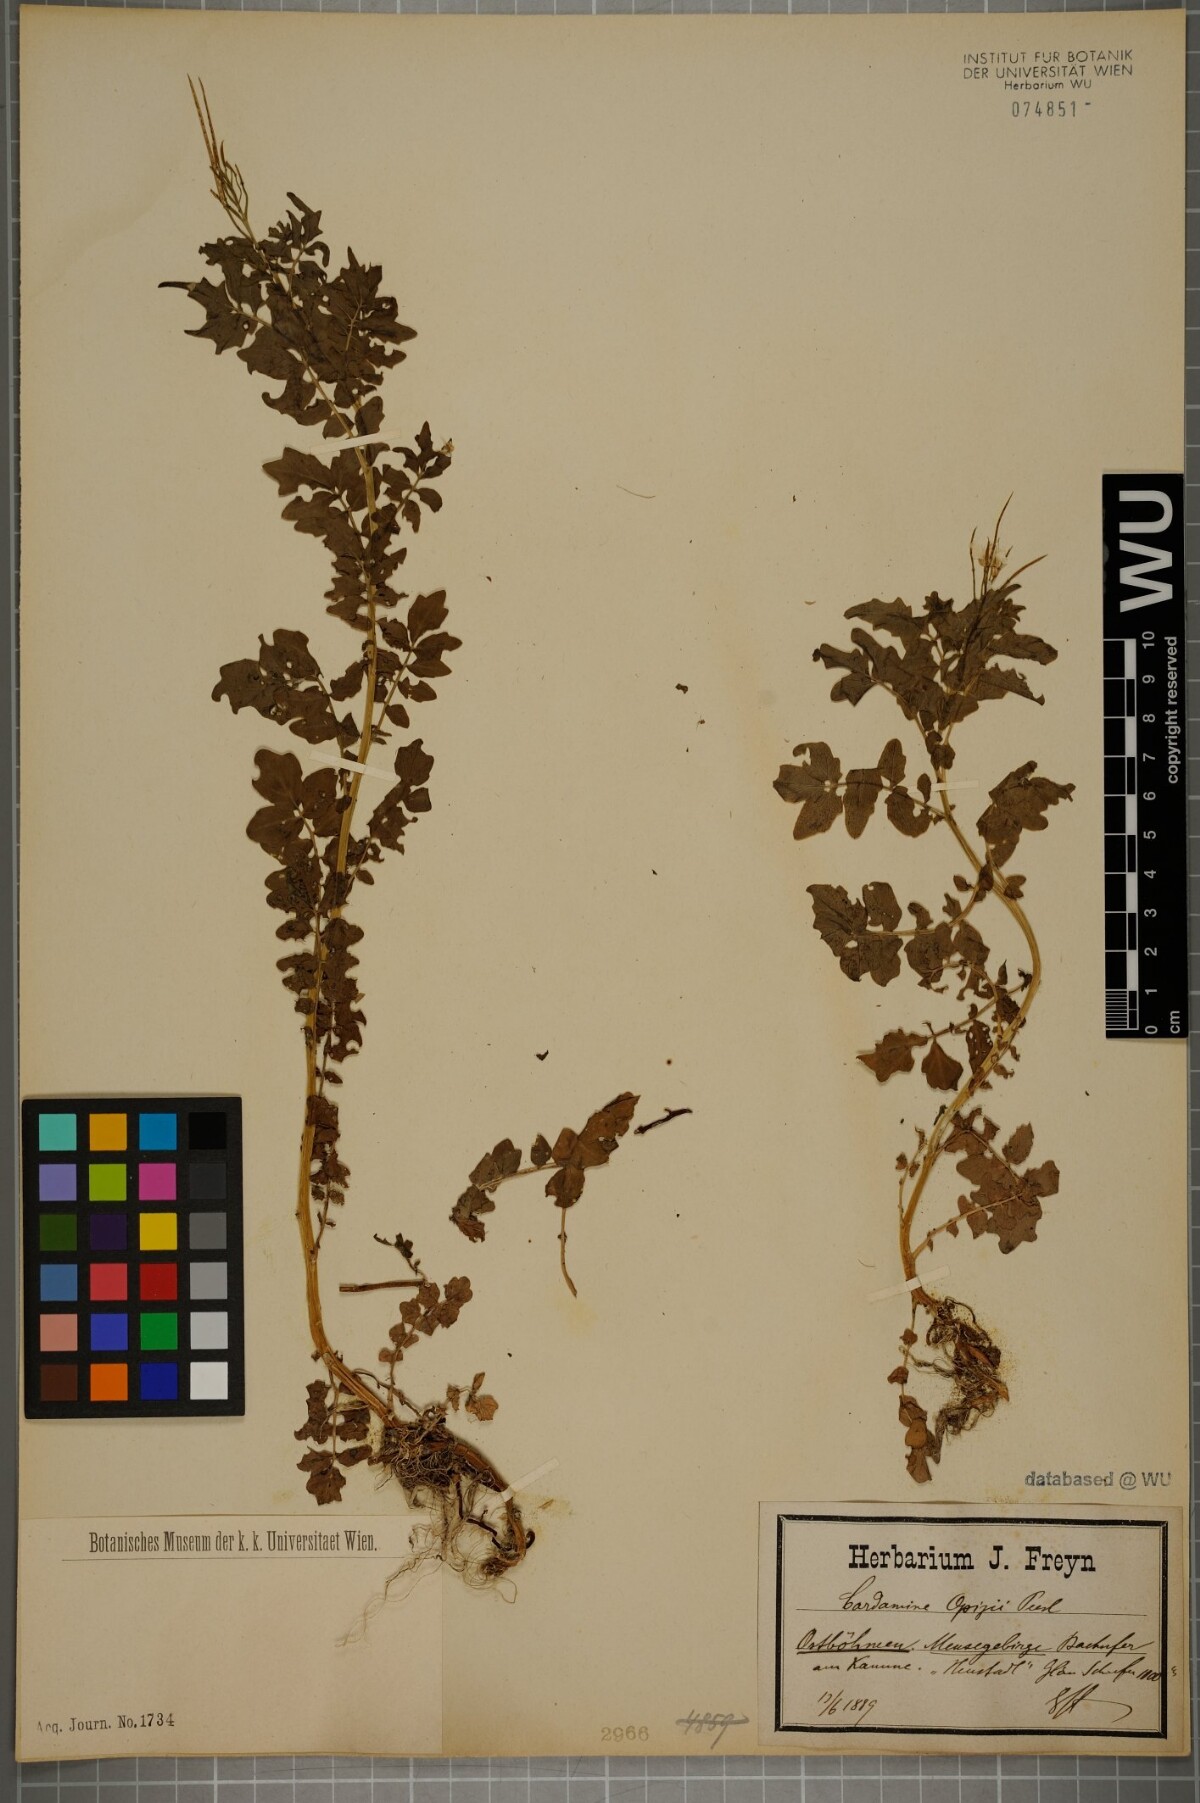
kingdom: Plantae
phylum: Tracheophyta
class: Magnoliopsida
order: Brassicales
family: Brassicaceae
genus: Cardamine
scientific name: Cardamine amara
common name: Large bitter-cress
